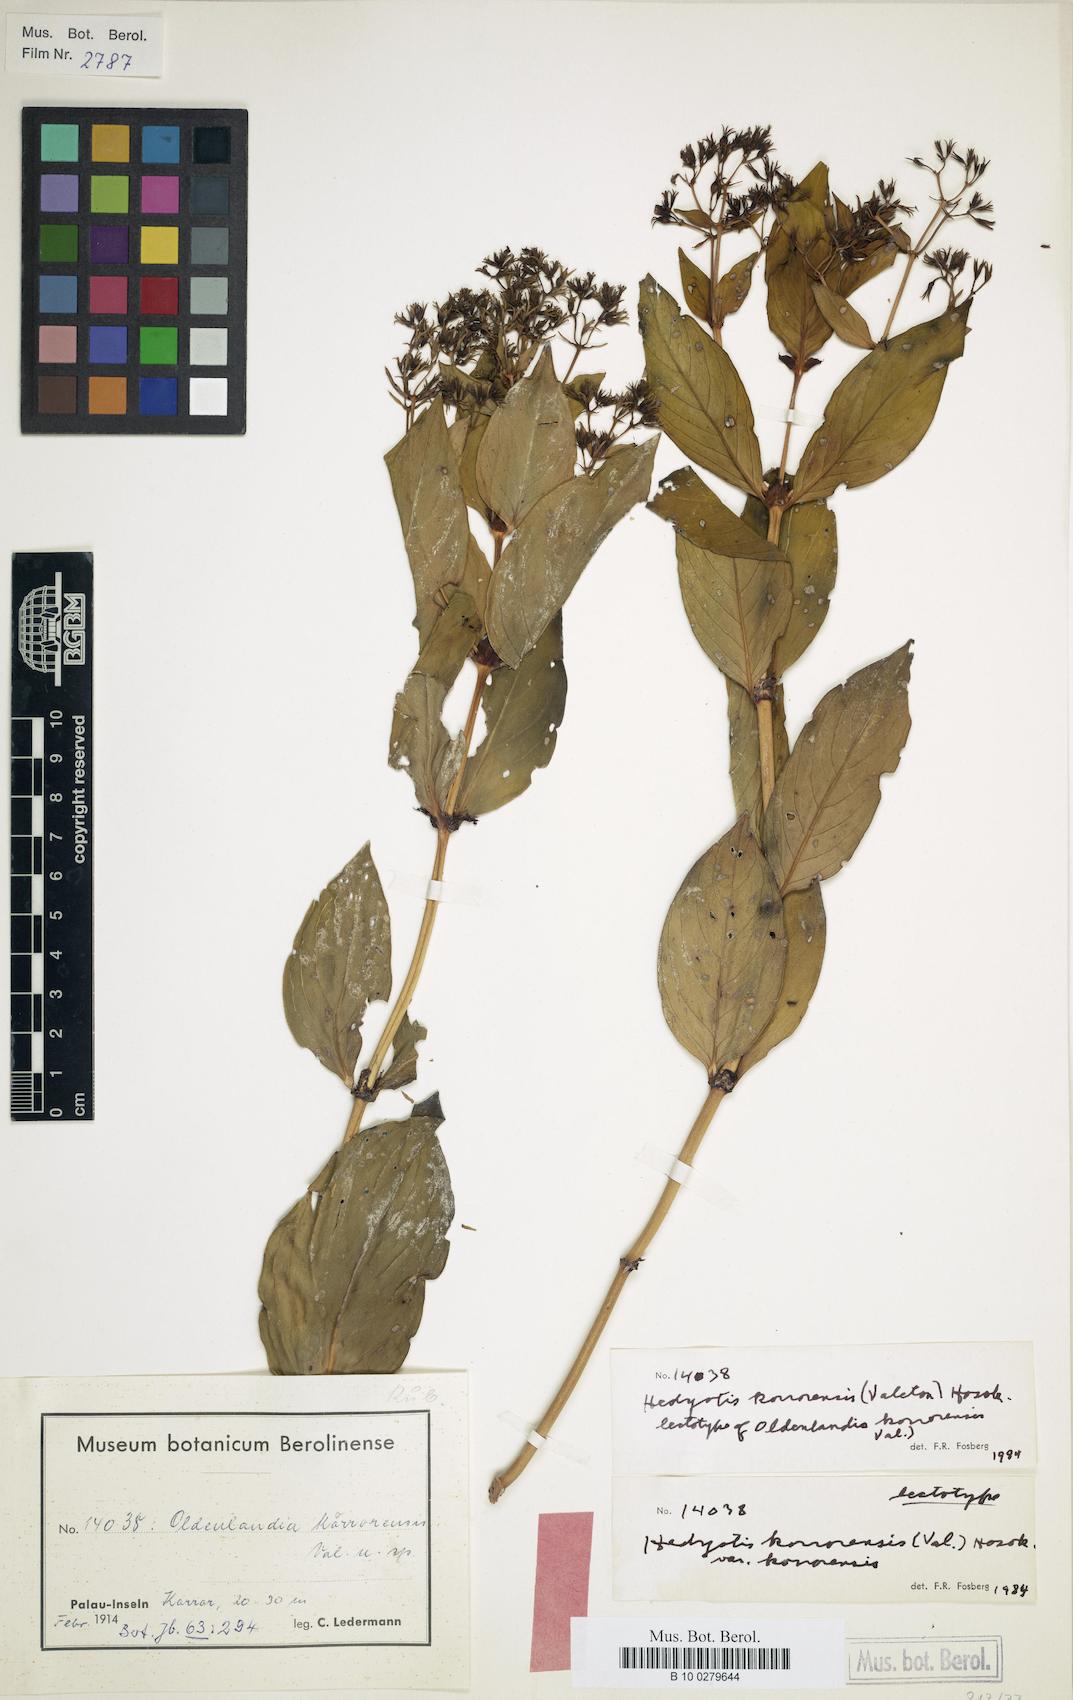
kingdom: Plantae
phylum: Tracheophyta
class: Magnoliopsida
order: Gentianales
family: Rubiaceae
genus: Hedyotis
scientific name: Hedyotis korrorensis
